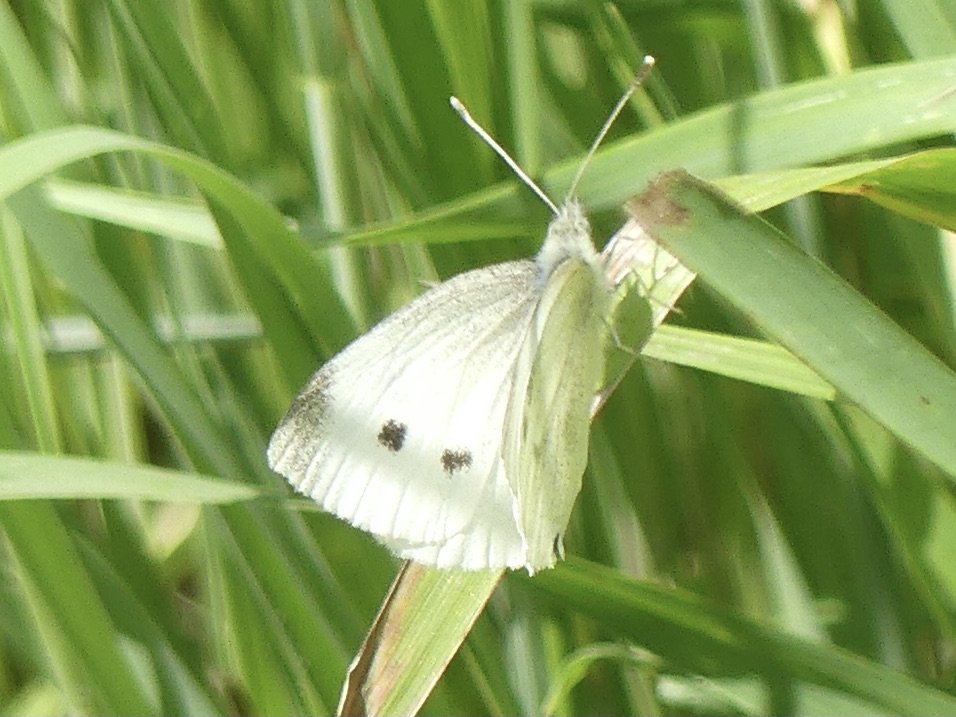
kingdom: Animalia
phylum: Arthropoda
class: Insecta
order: Lepidoptera
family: Pieridae
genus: Pieris
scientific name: Pieris rapae
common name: Cabbage White
